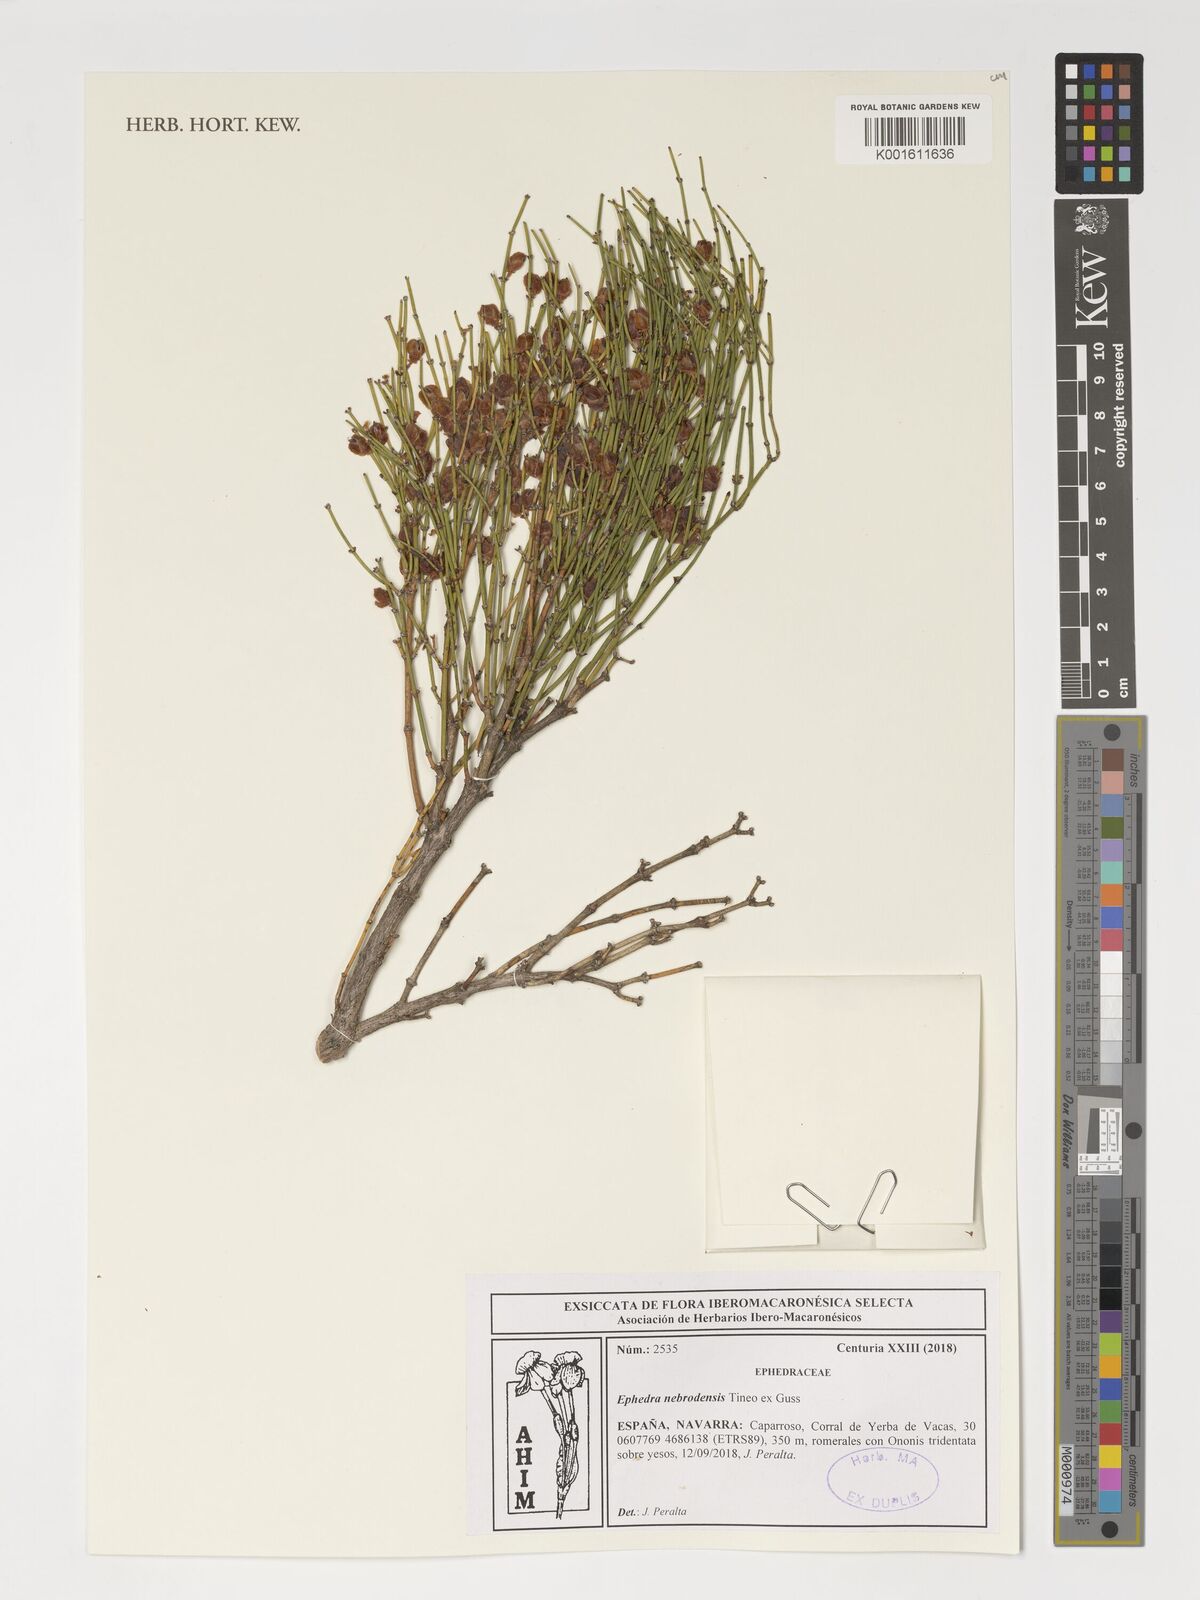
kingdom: Plantae
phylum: Tracheophyta
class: Gnetopsida
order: Ephedrales
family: Ephedraceae
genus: Ephedra
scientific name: Ephedra nebrodensis
